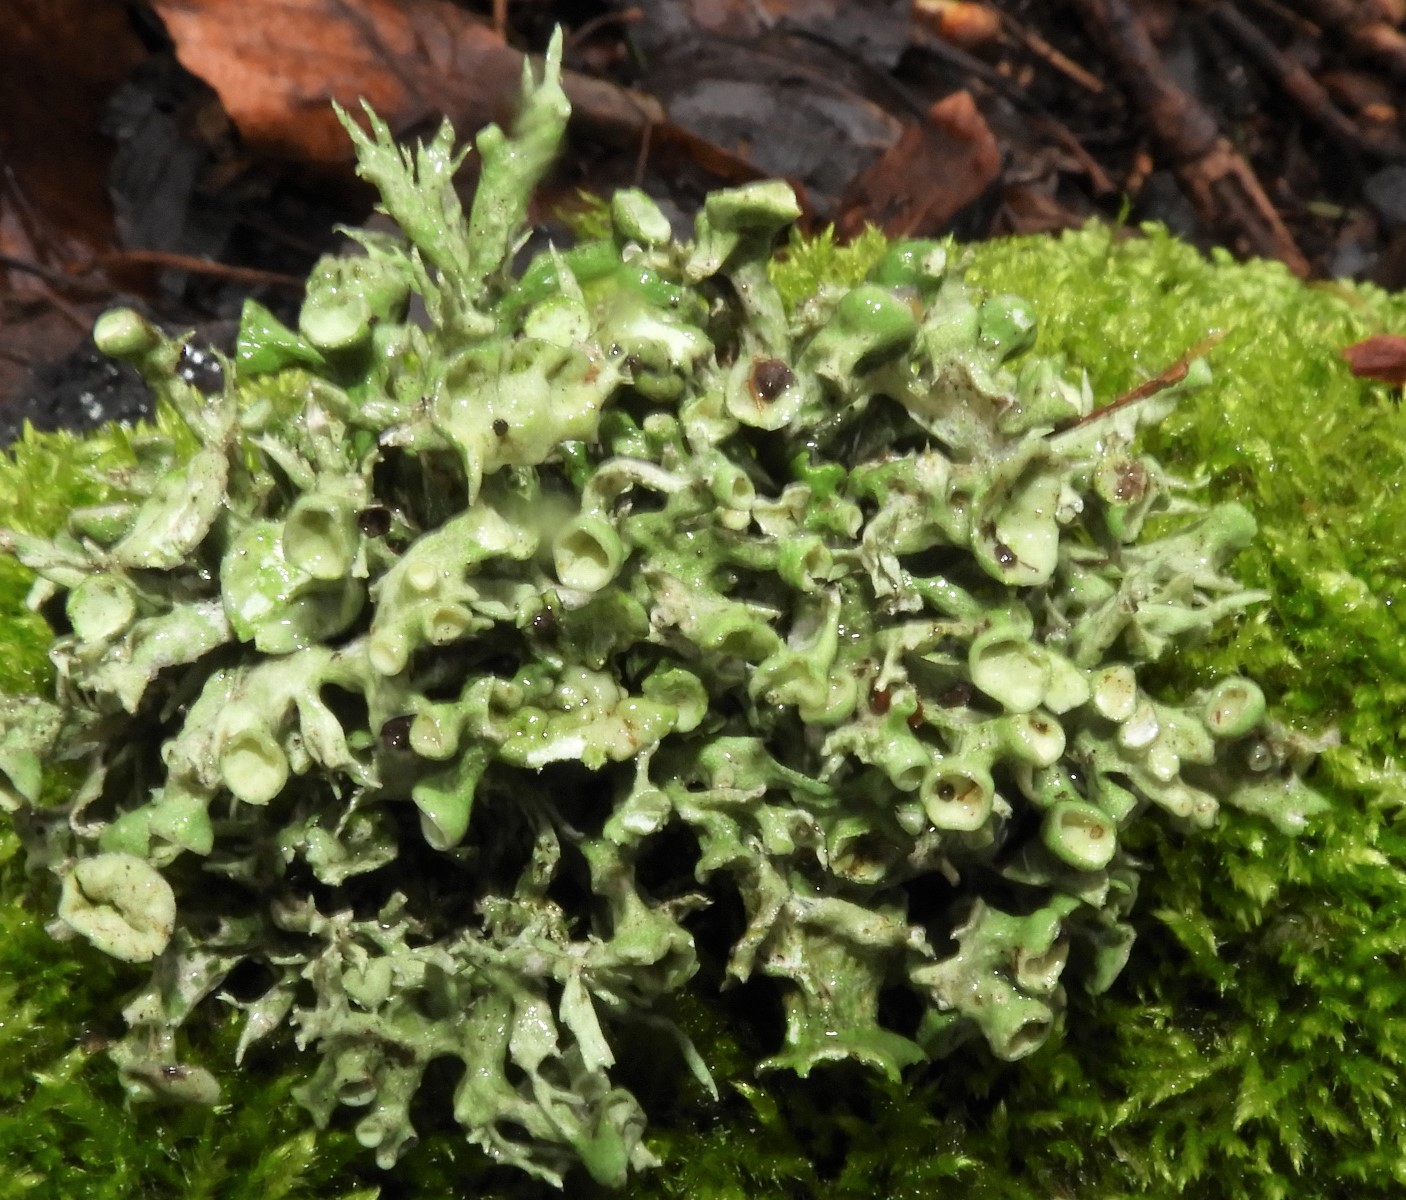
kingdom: Fungi
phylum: Ascomycota
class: Lecanoromycetes
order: Lecanorales
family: Ramalinaceae
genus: Ramalina
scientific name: Ramalina fastigiata
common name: tue-grenlav
